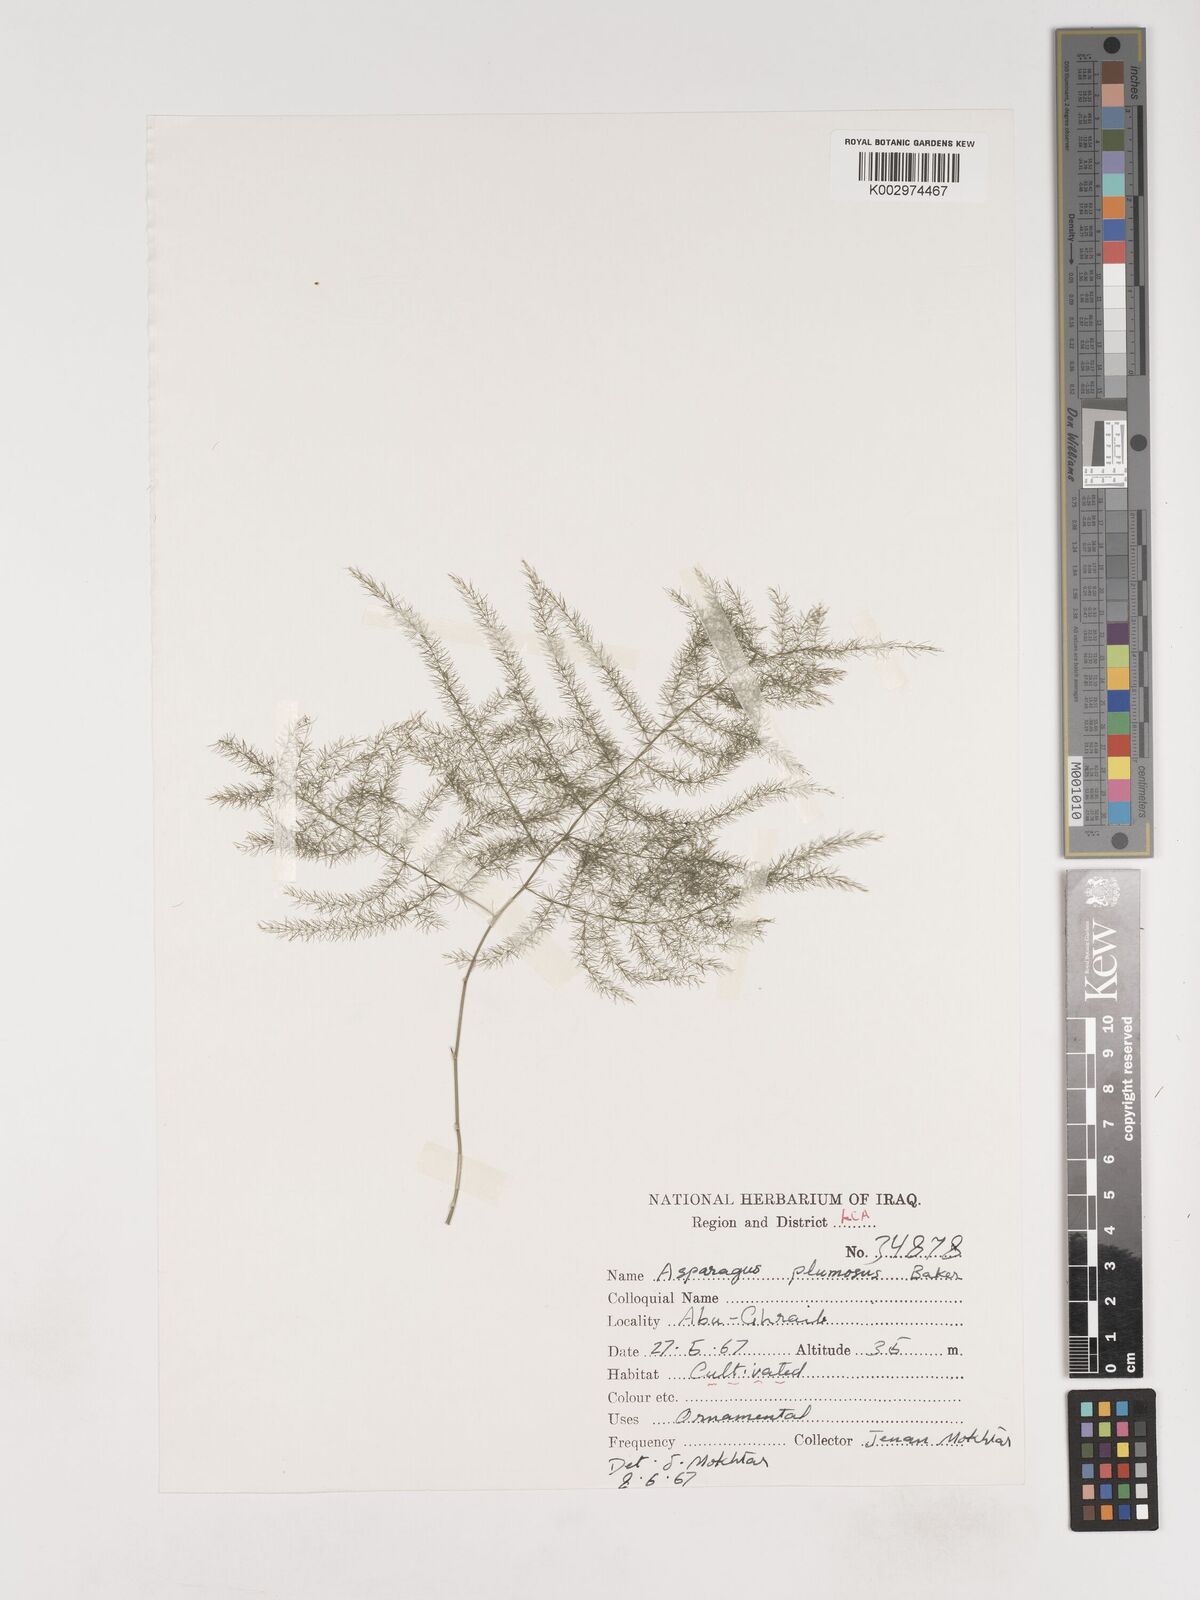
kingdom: Plantae
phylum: Tracheophyta
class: Liliopsida
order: Asparagales
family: Asparagaceae
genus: Asparagus
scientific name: Asparagus schoberioides
